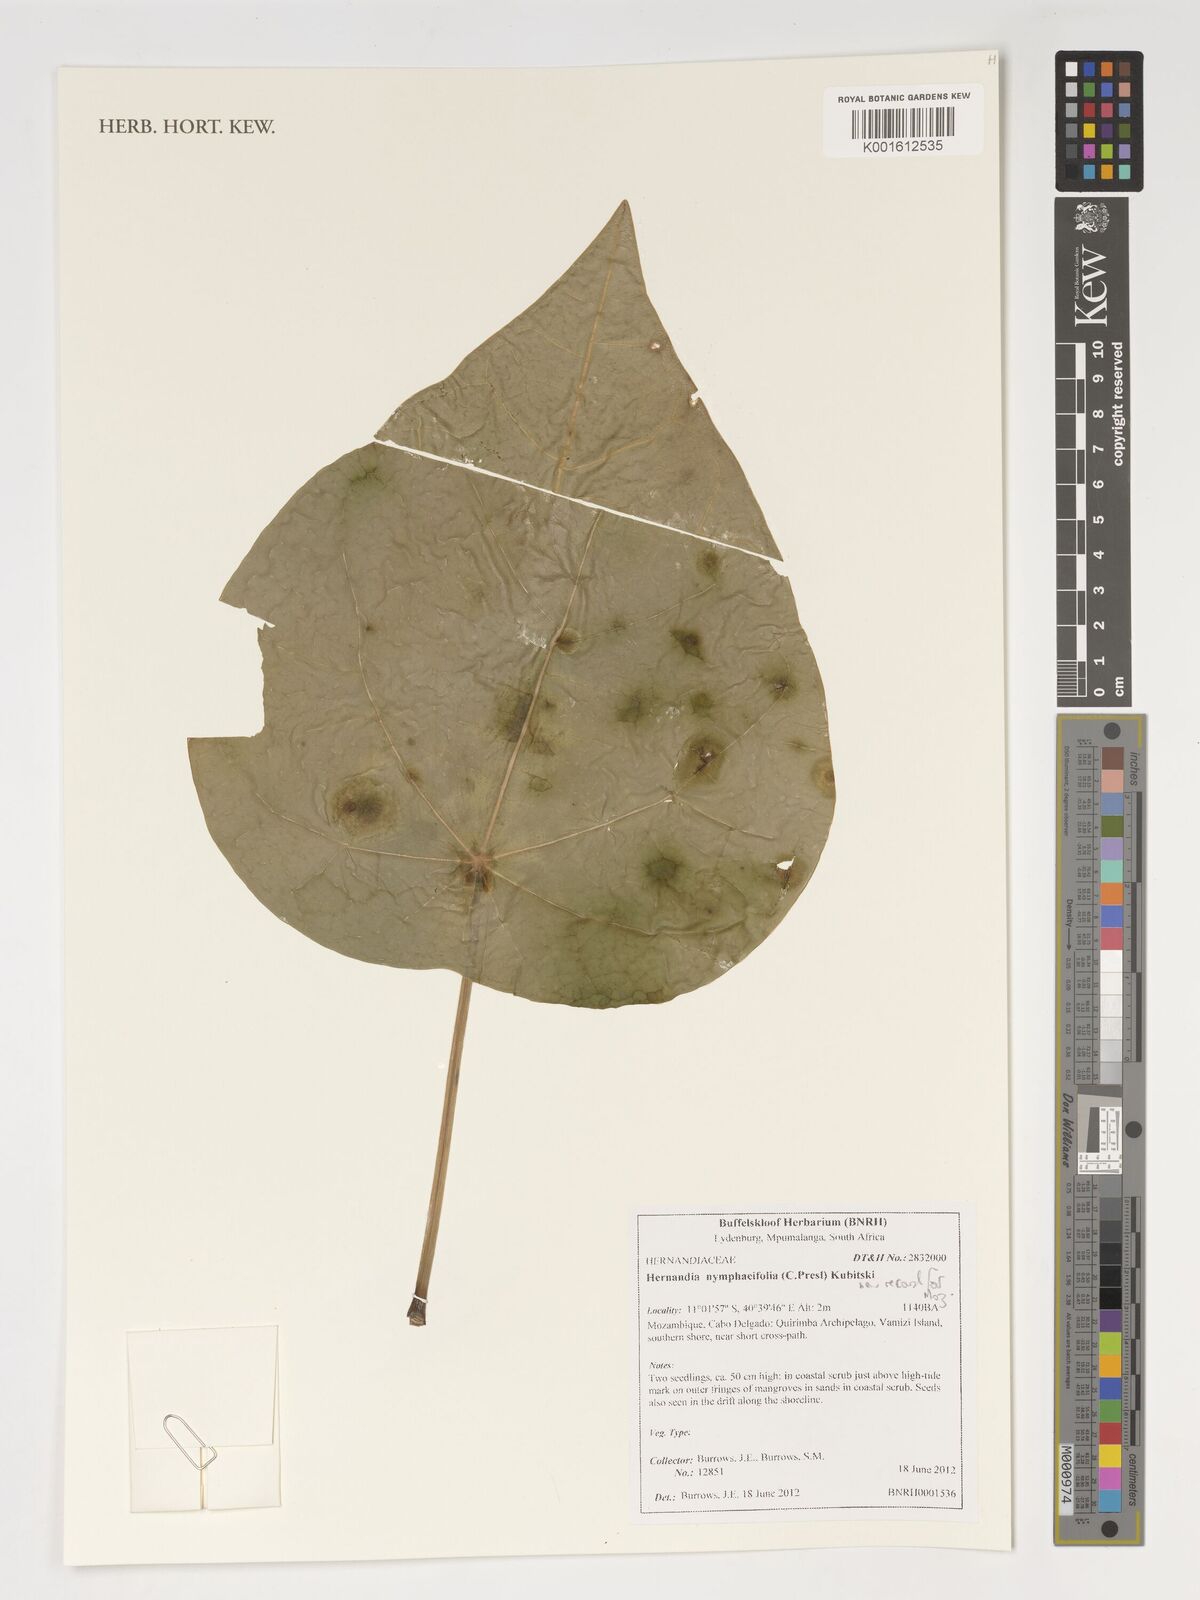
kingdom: Plantae
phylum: Tracheophyta
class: Magnoliopsida
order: Laurales
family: Hernandiaceae
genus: Hernandia
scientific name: Hernandia nymphaeifolia
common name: Sea hearse
